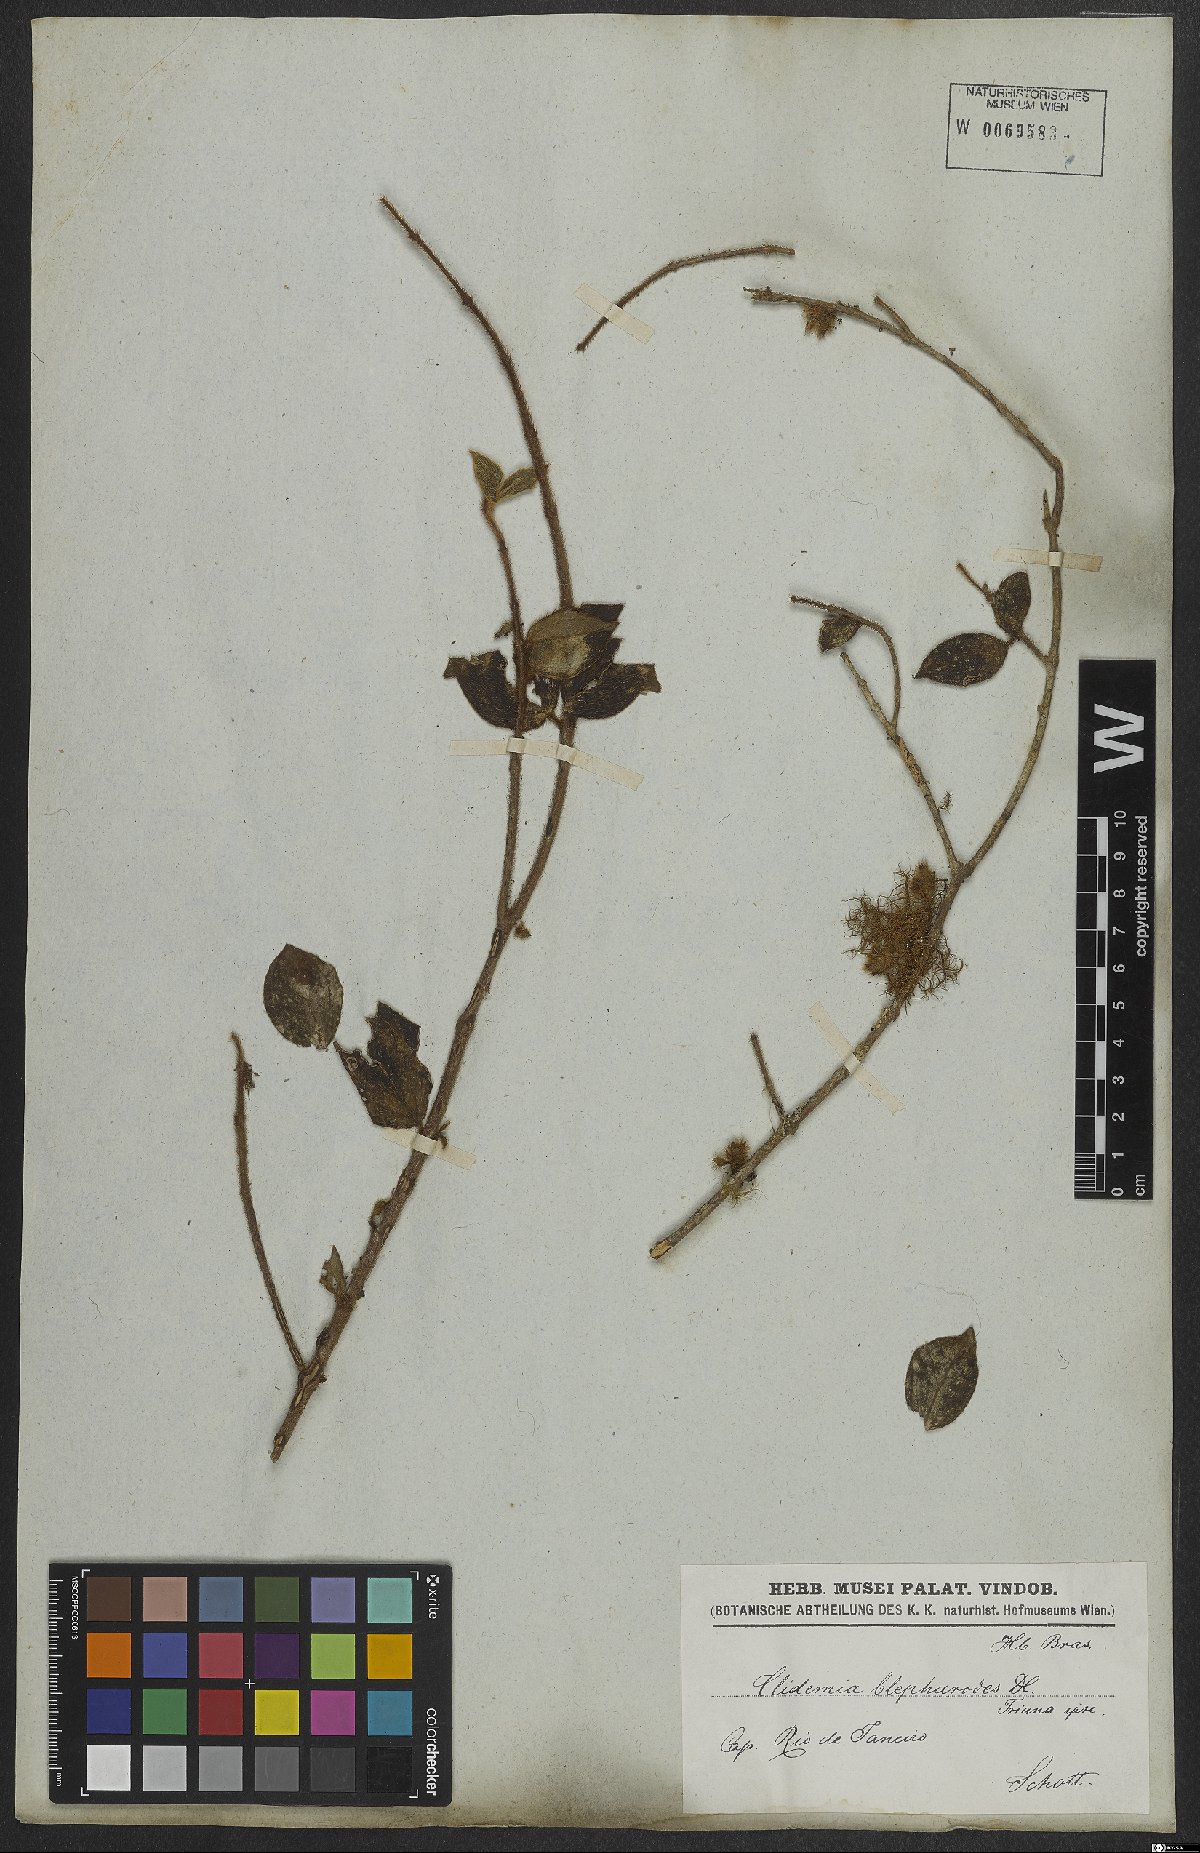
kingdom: Plantae
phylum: Tracheophyta
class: Magnoliopsida
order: Myrtales
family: Melastomataceae
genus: Miconia
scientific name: Miconia blepharodes
